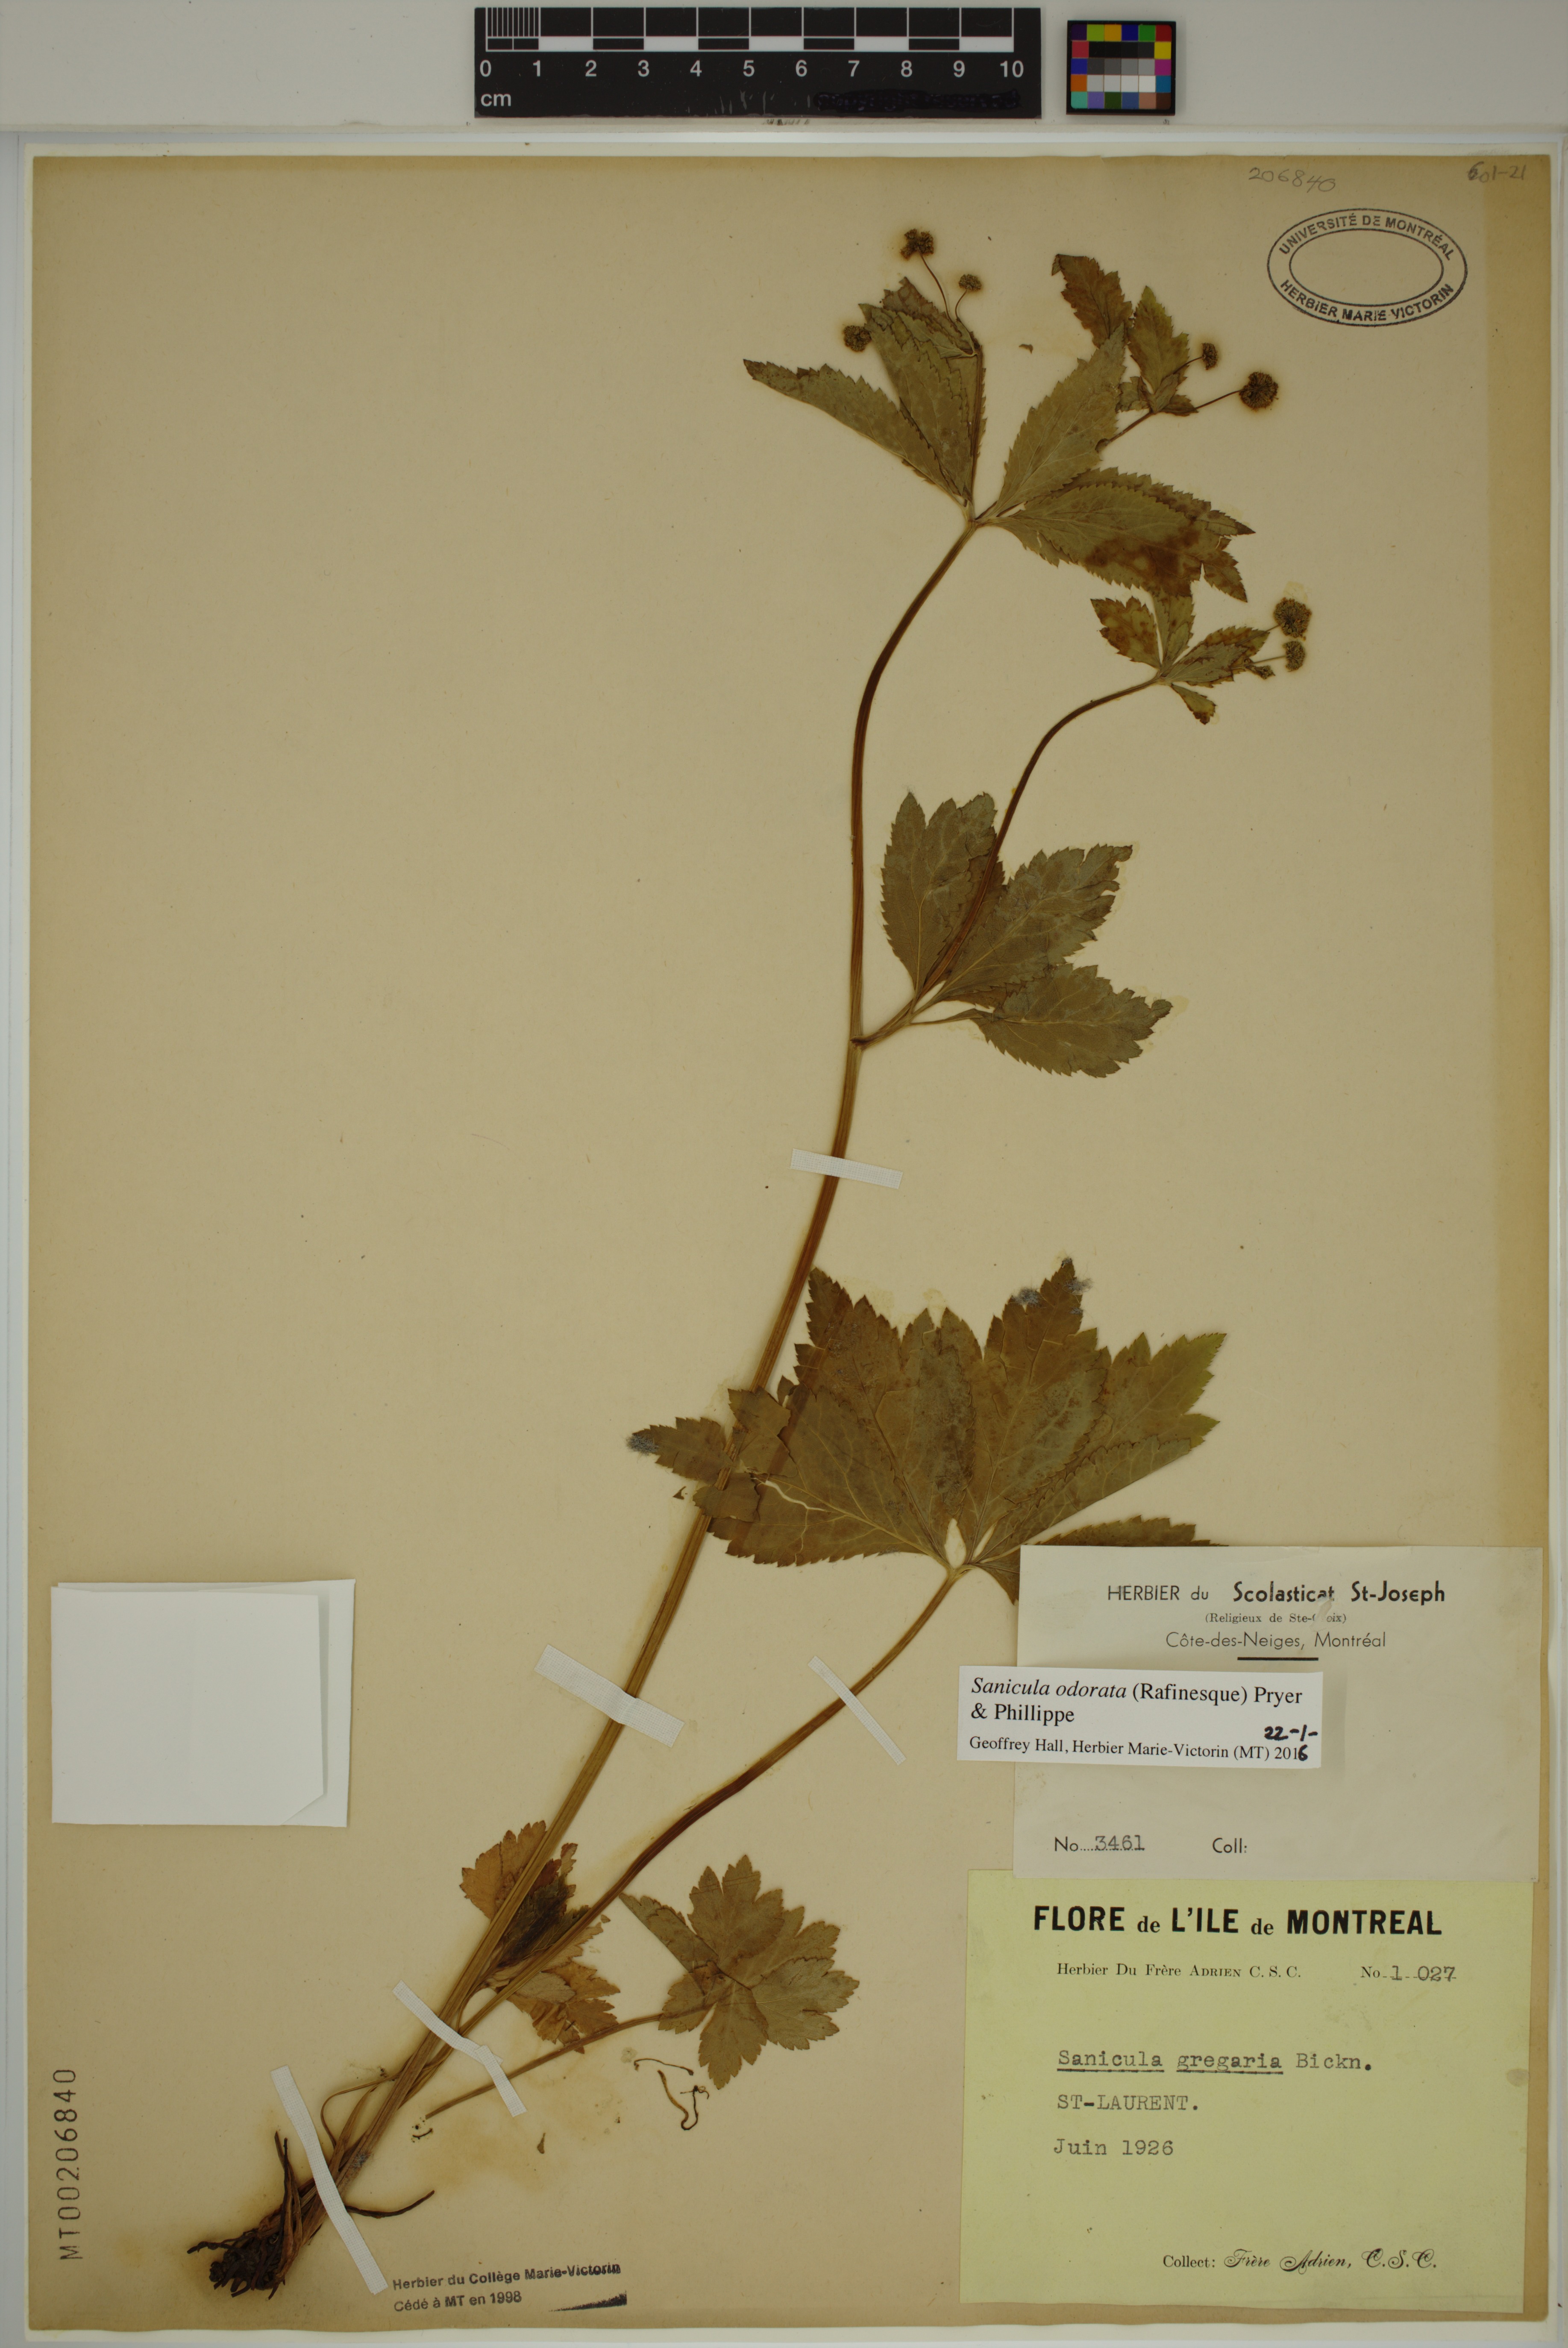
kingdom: Plantae
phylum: Tracheophyta
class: Magnoliopsida
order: Apiales
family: Apiaceae
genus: Sanicula
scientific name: Sanicula odorata
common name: Cluster sanicle
